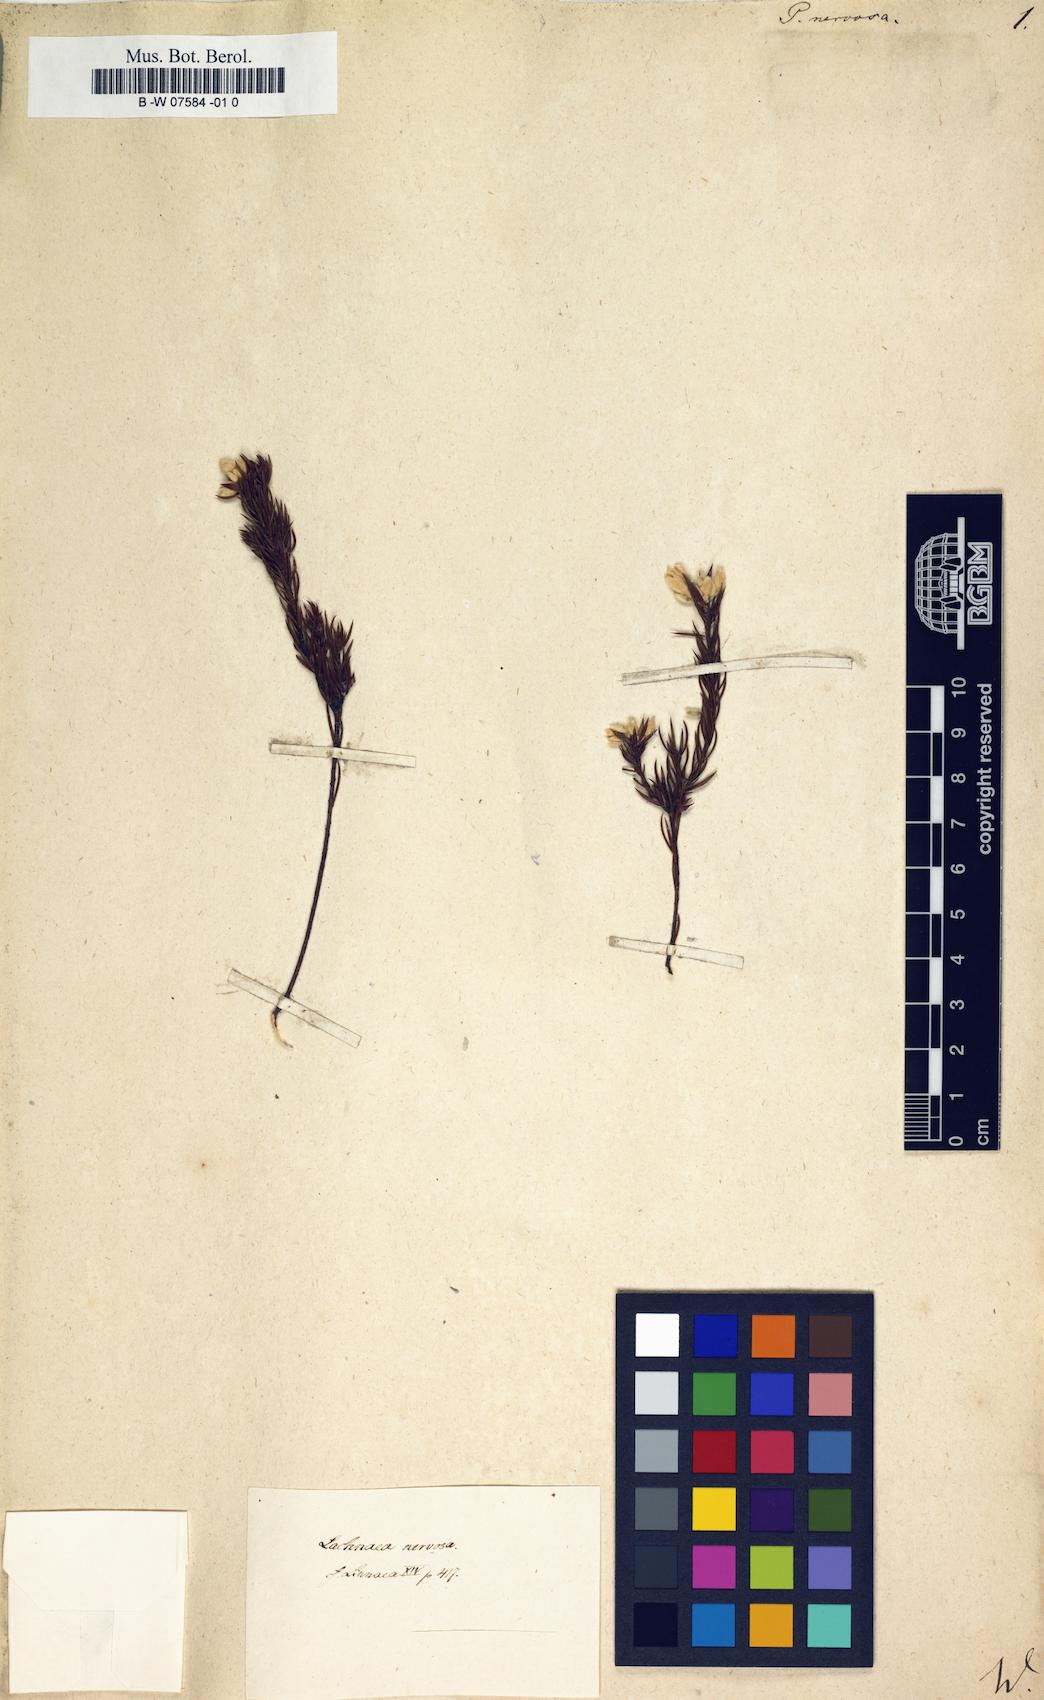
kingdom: Plantae
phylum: Tracheophyta
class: Magnoliopsida
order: Malvales
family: Thymelaeaceae
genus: Lachnaea
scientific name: Lachnaea
